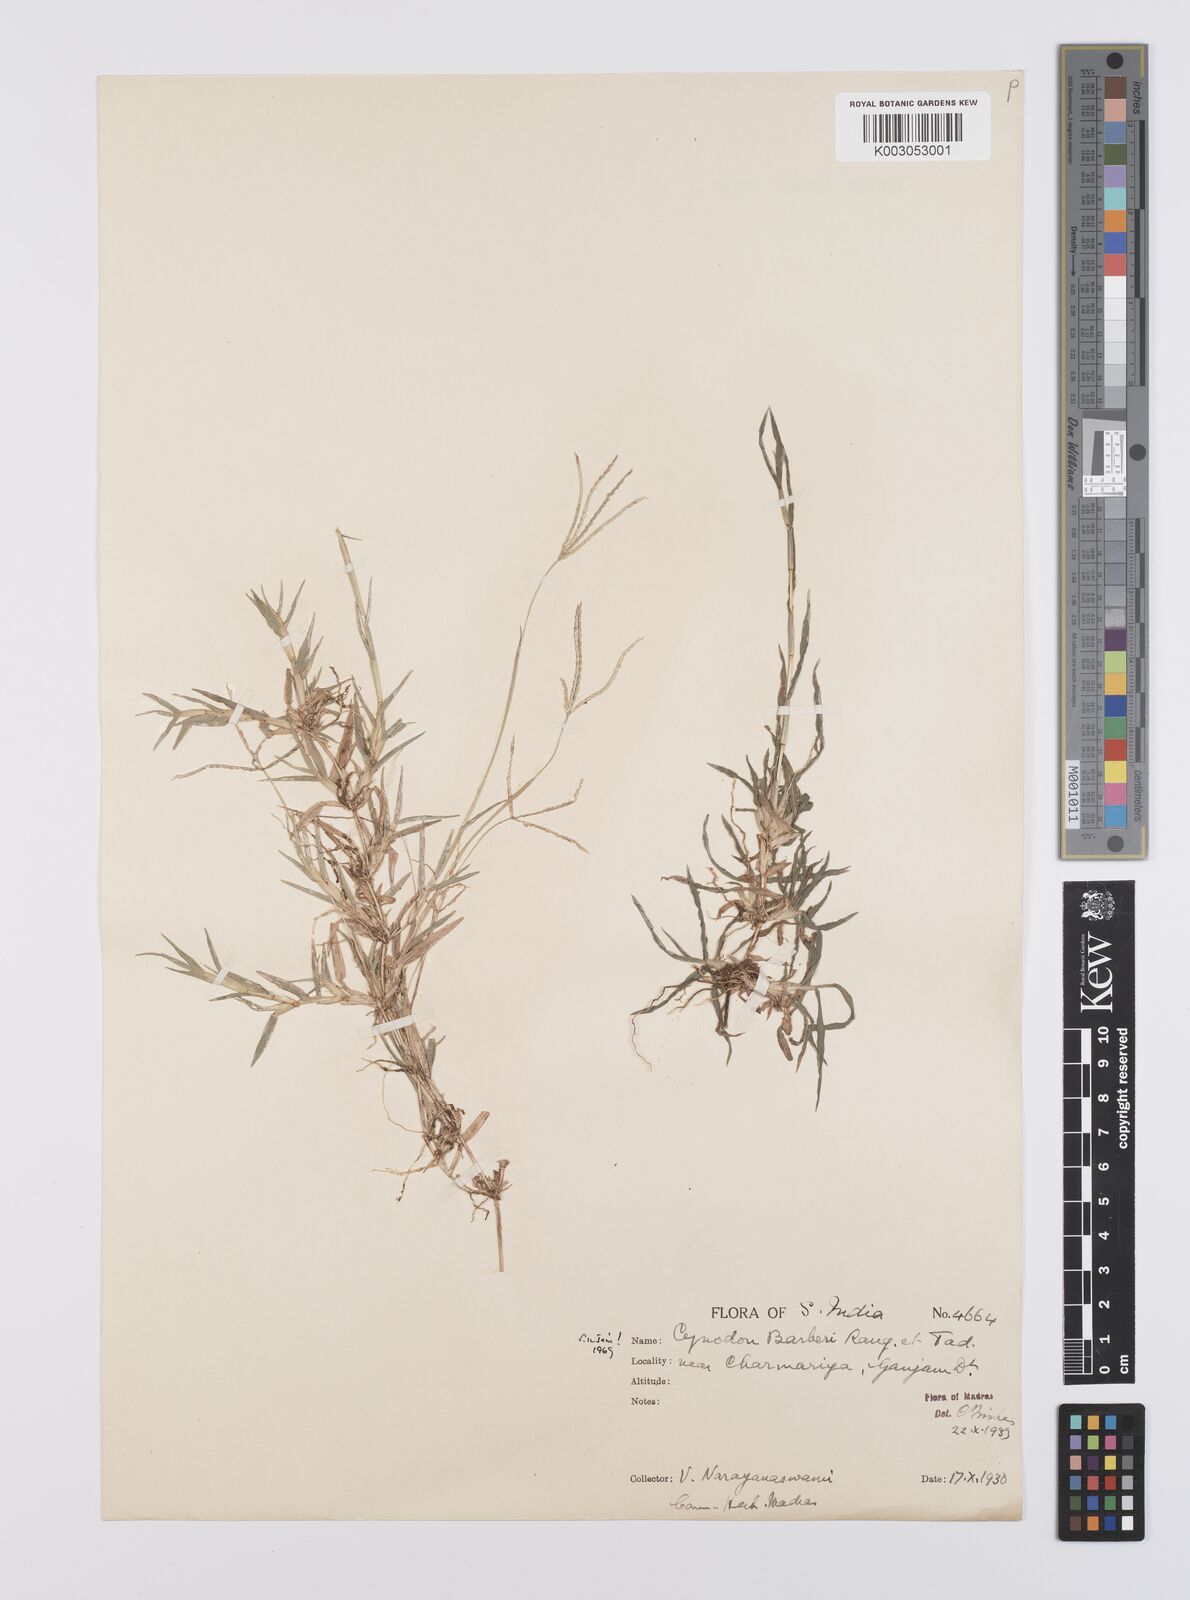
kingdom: Plantae
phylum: Tracheophyta
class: Liliopsida
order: Poales
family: Poaceae
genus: Cynodon
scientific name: Cynodon barberi
